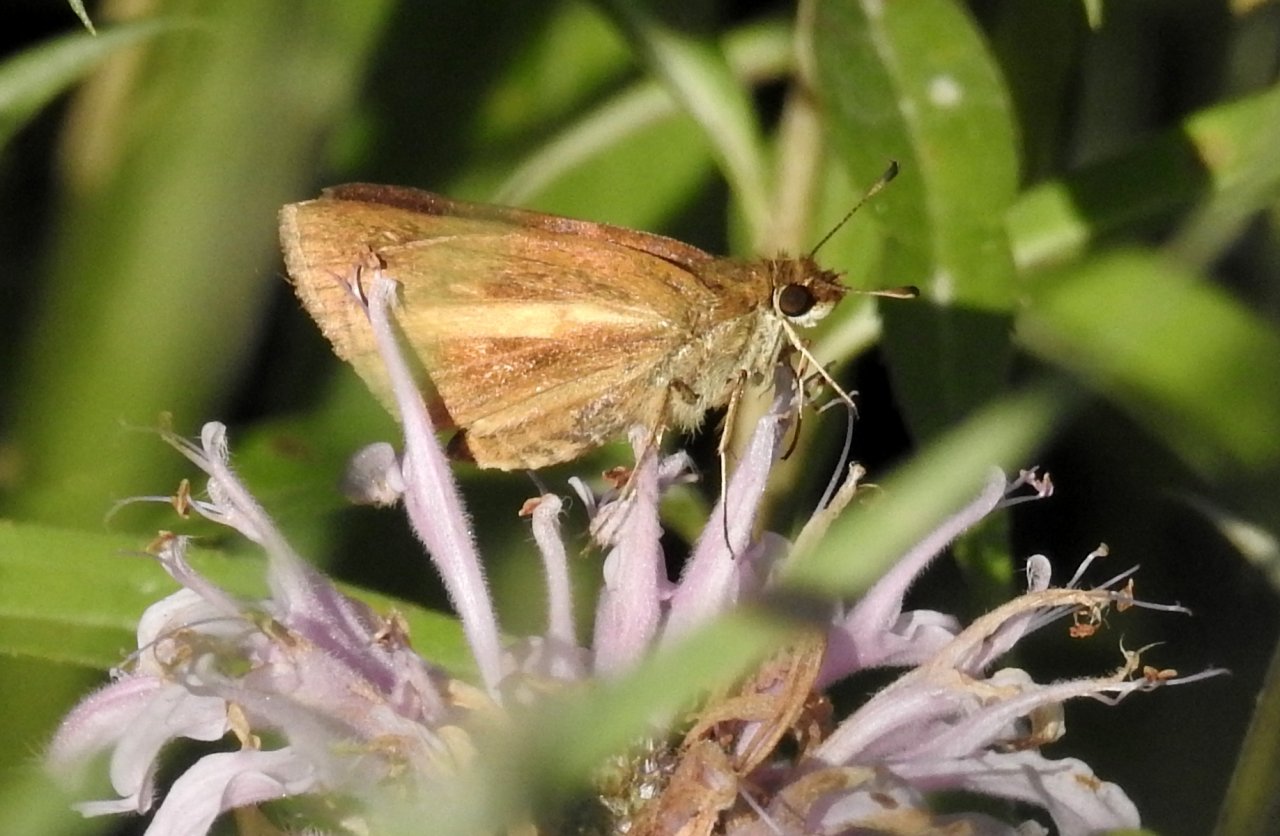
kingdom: Animalia
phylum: Arthropoda
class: Insecta
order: Lepidoptera
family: Hesperiidae
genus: Poanes
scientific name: Poanes viator
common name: Broad-winged Skipper
